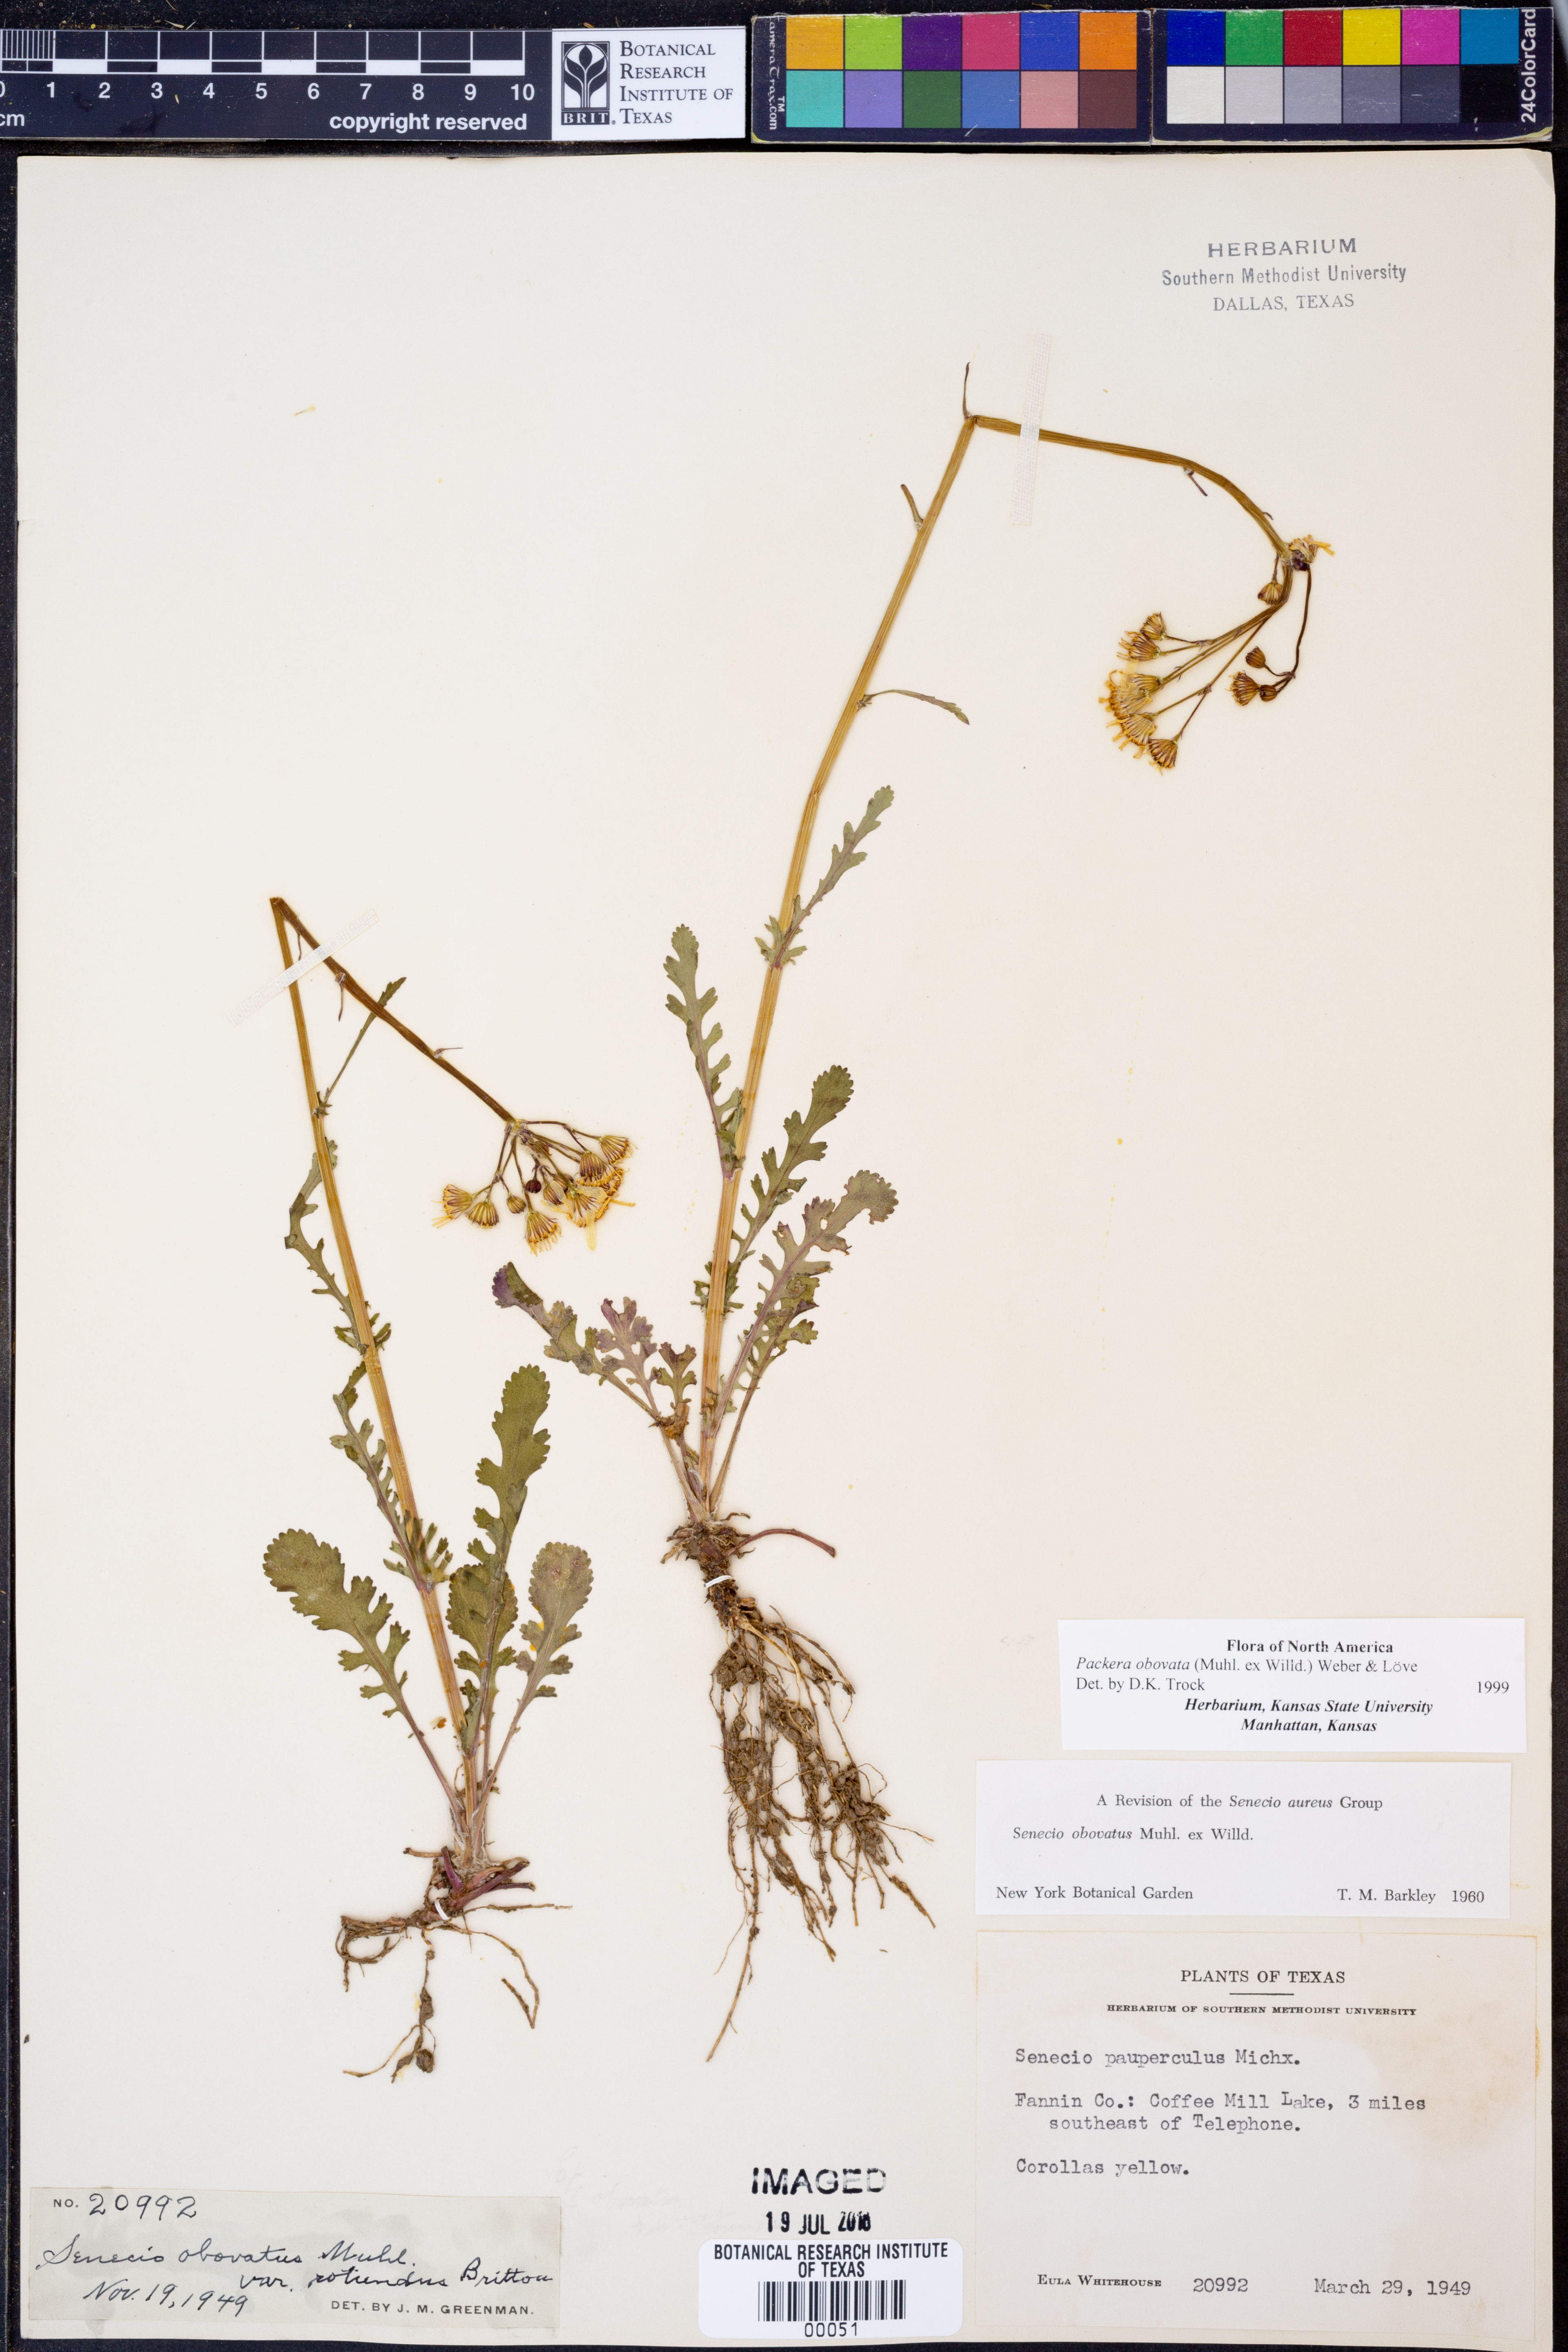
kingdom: Plantae
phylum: Tracheophyta
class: Magnoliopsida
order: Asterales
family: Asteraceae
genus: Packera
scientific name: Packera obovata
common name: Round-leaf ragwort
